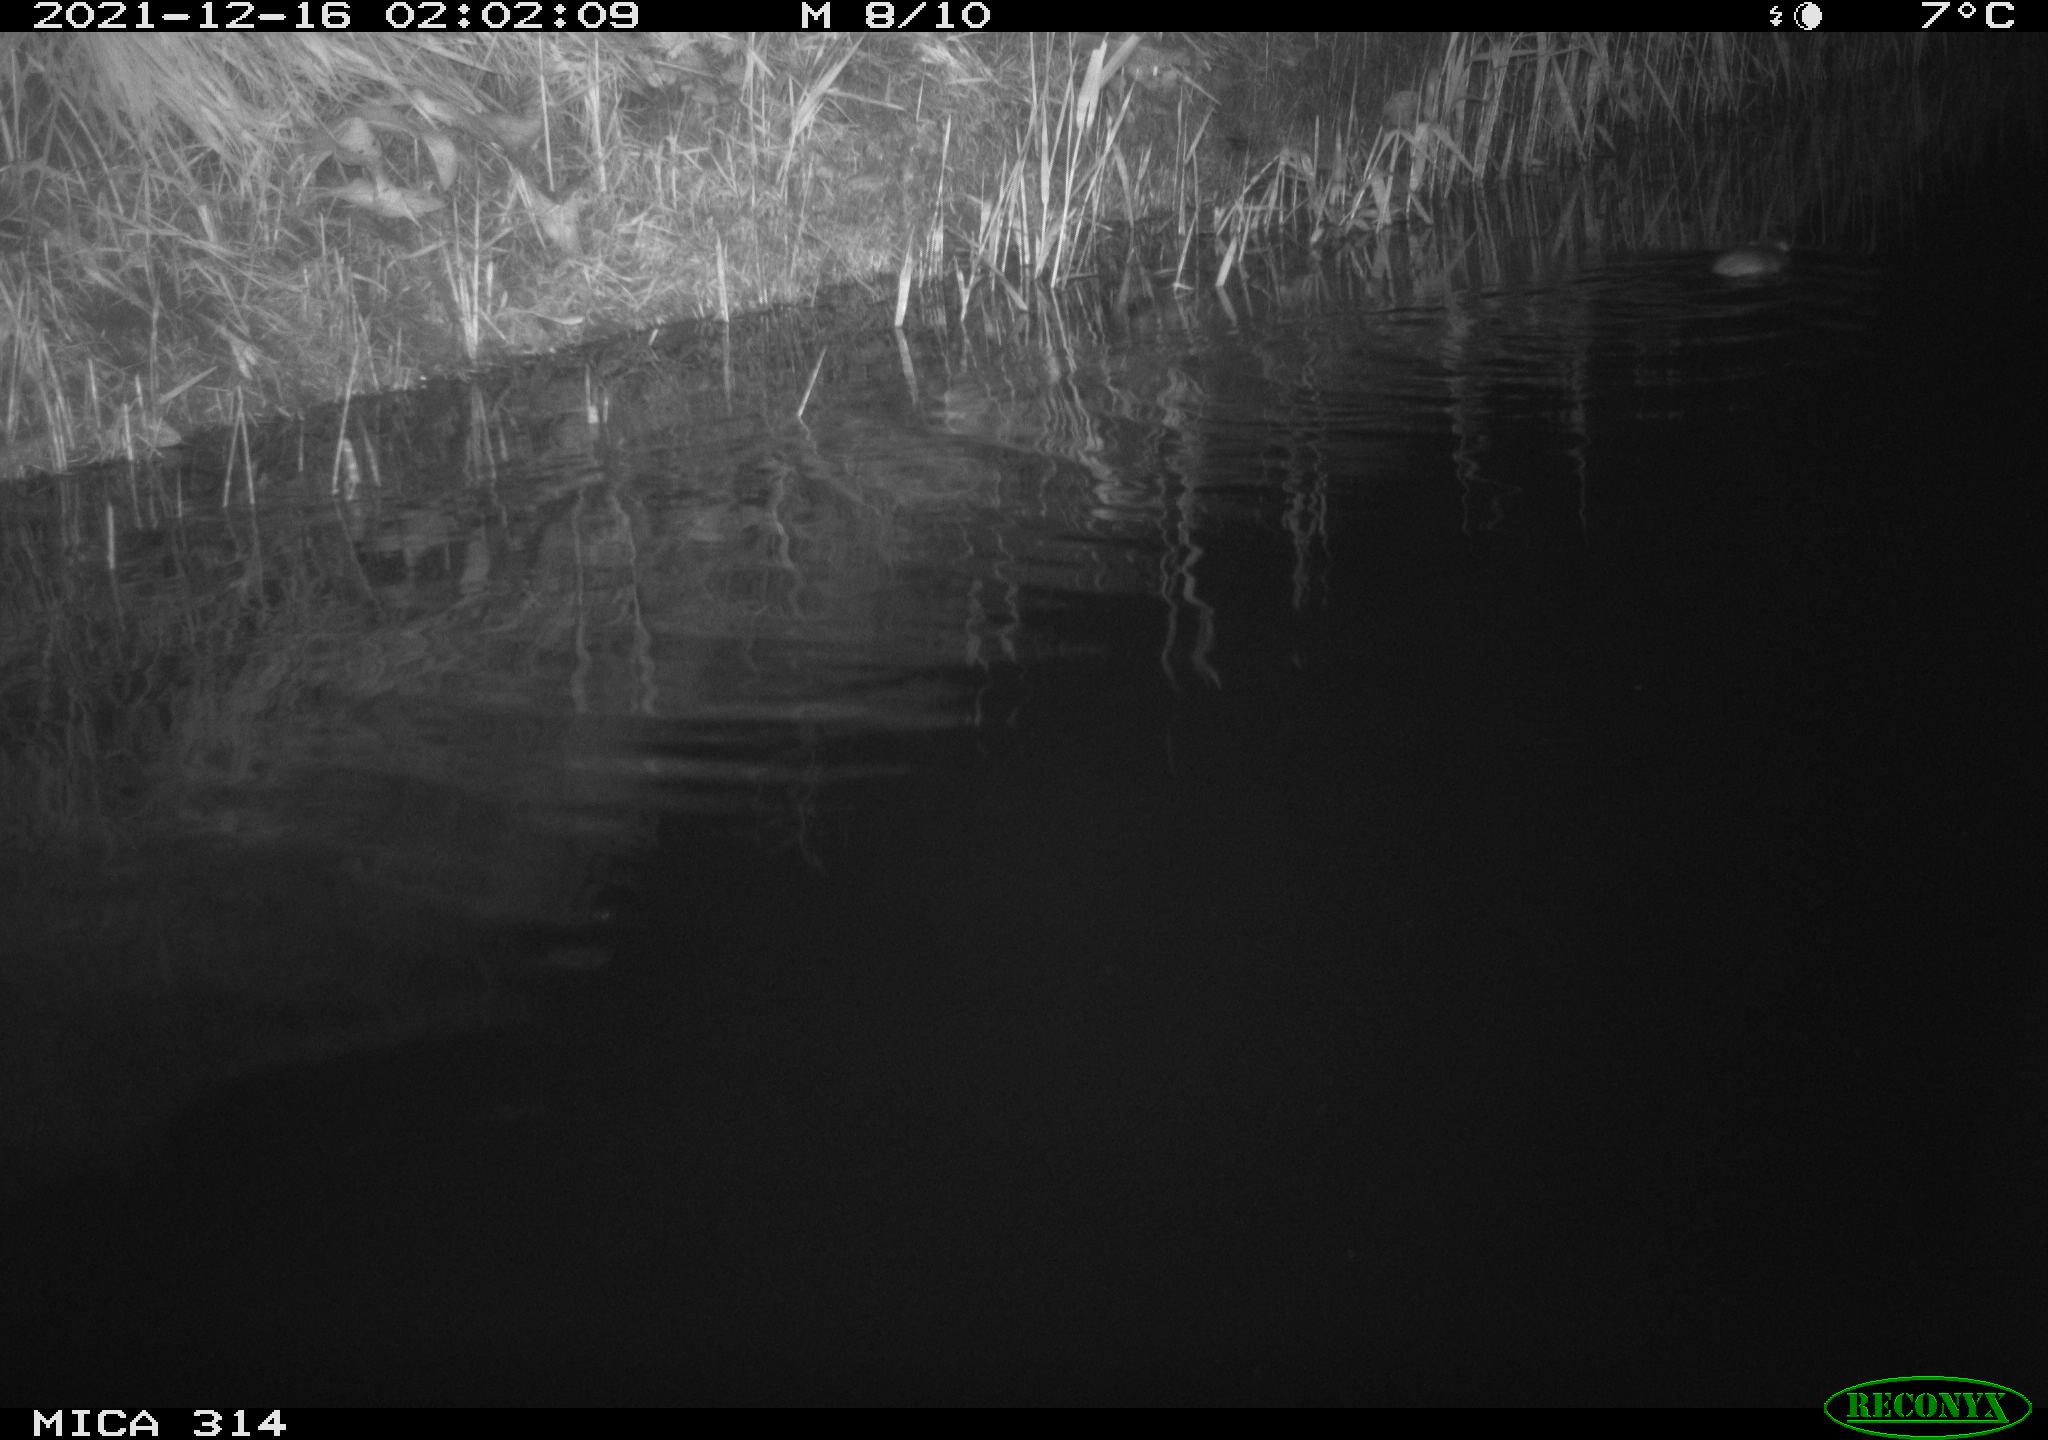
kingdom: Animalia
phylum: Chordata
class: Mammalia
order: Rodentia
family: Cricetidae
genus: Ondatra
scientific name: Ondatra zibethicus
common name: Muskrat
